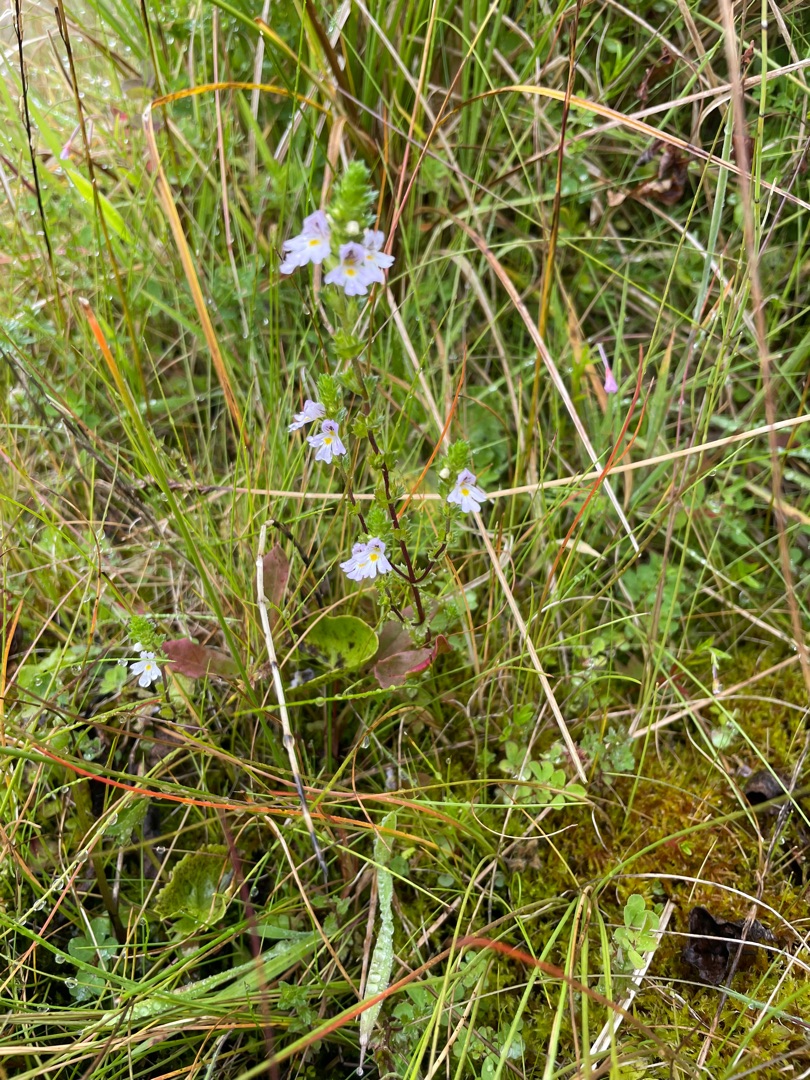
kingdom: Plantae
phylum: Tracheophyta
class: Magnoliopsida
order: Lamiales
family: Orobanchaceae
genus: Euphrasia
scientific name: Euphrasia vernalis
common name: Spinkel øjentrøst
